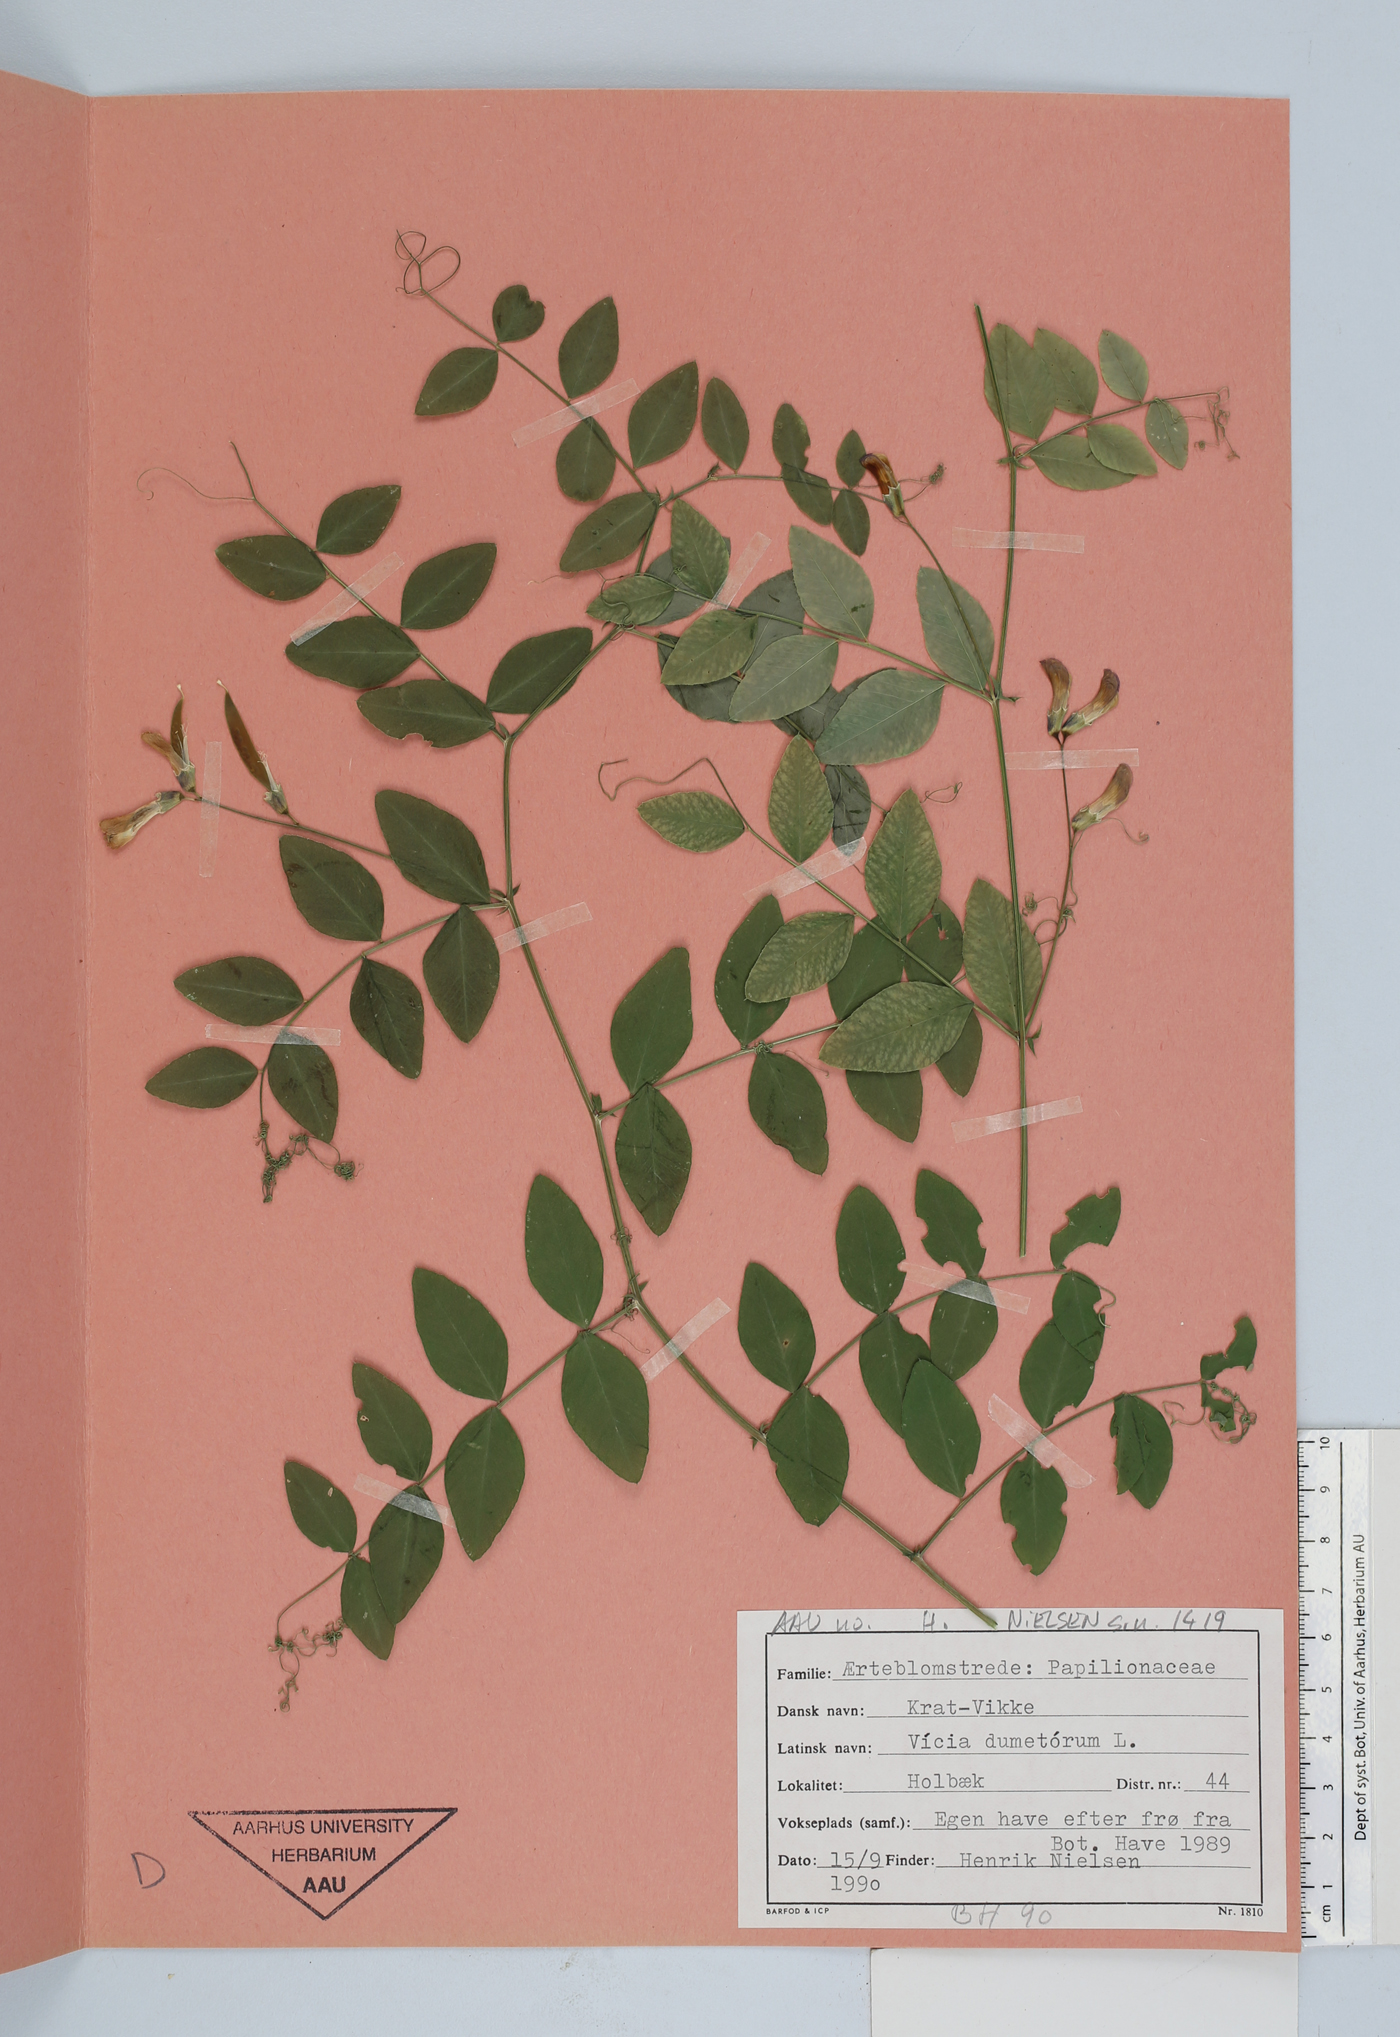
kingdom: Plantae
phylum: Tracheophyta
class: Magnoliopsida
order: Fabales
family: Fabaceae
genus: Vicia
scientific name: Vicia dumetorum
